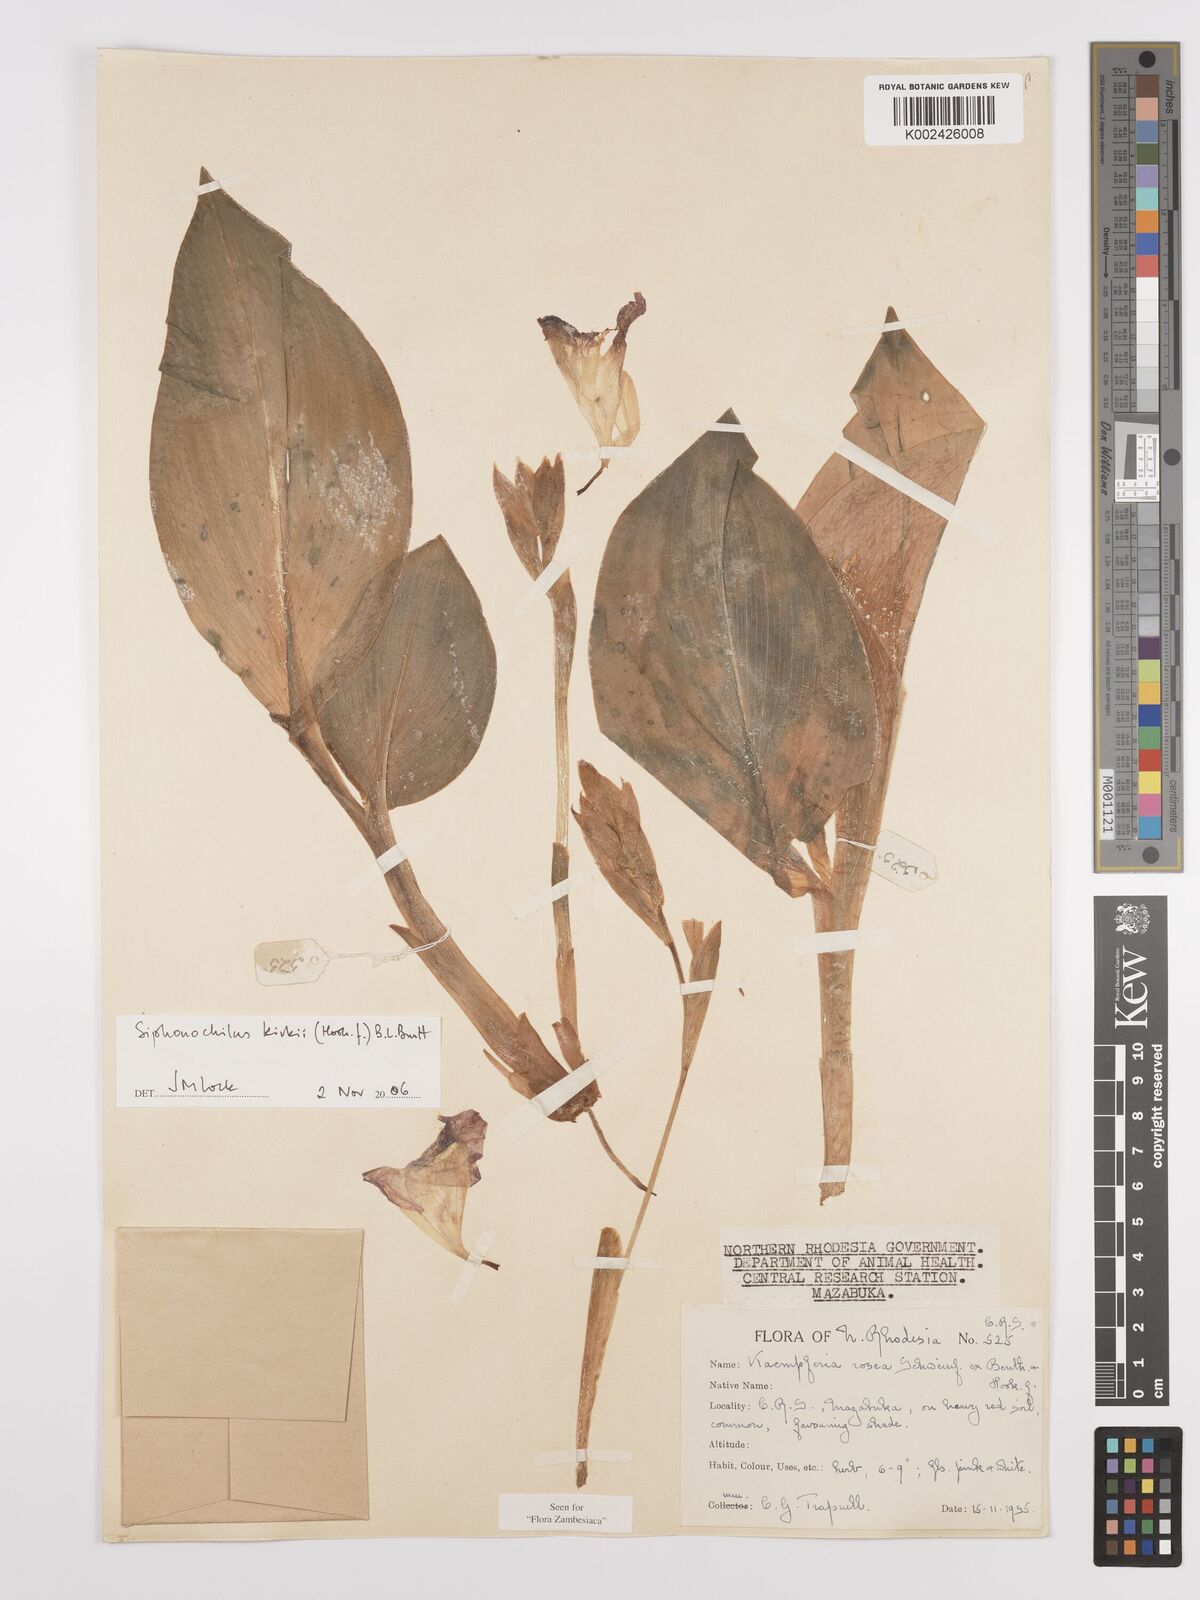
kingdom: Plantae
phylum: Tracheophyta
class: Liliopsida
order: Zingiberales
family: Zingiberaceae
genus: Siphonochilus
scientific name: Siphonochilus kirkii
